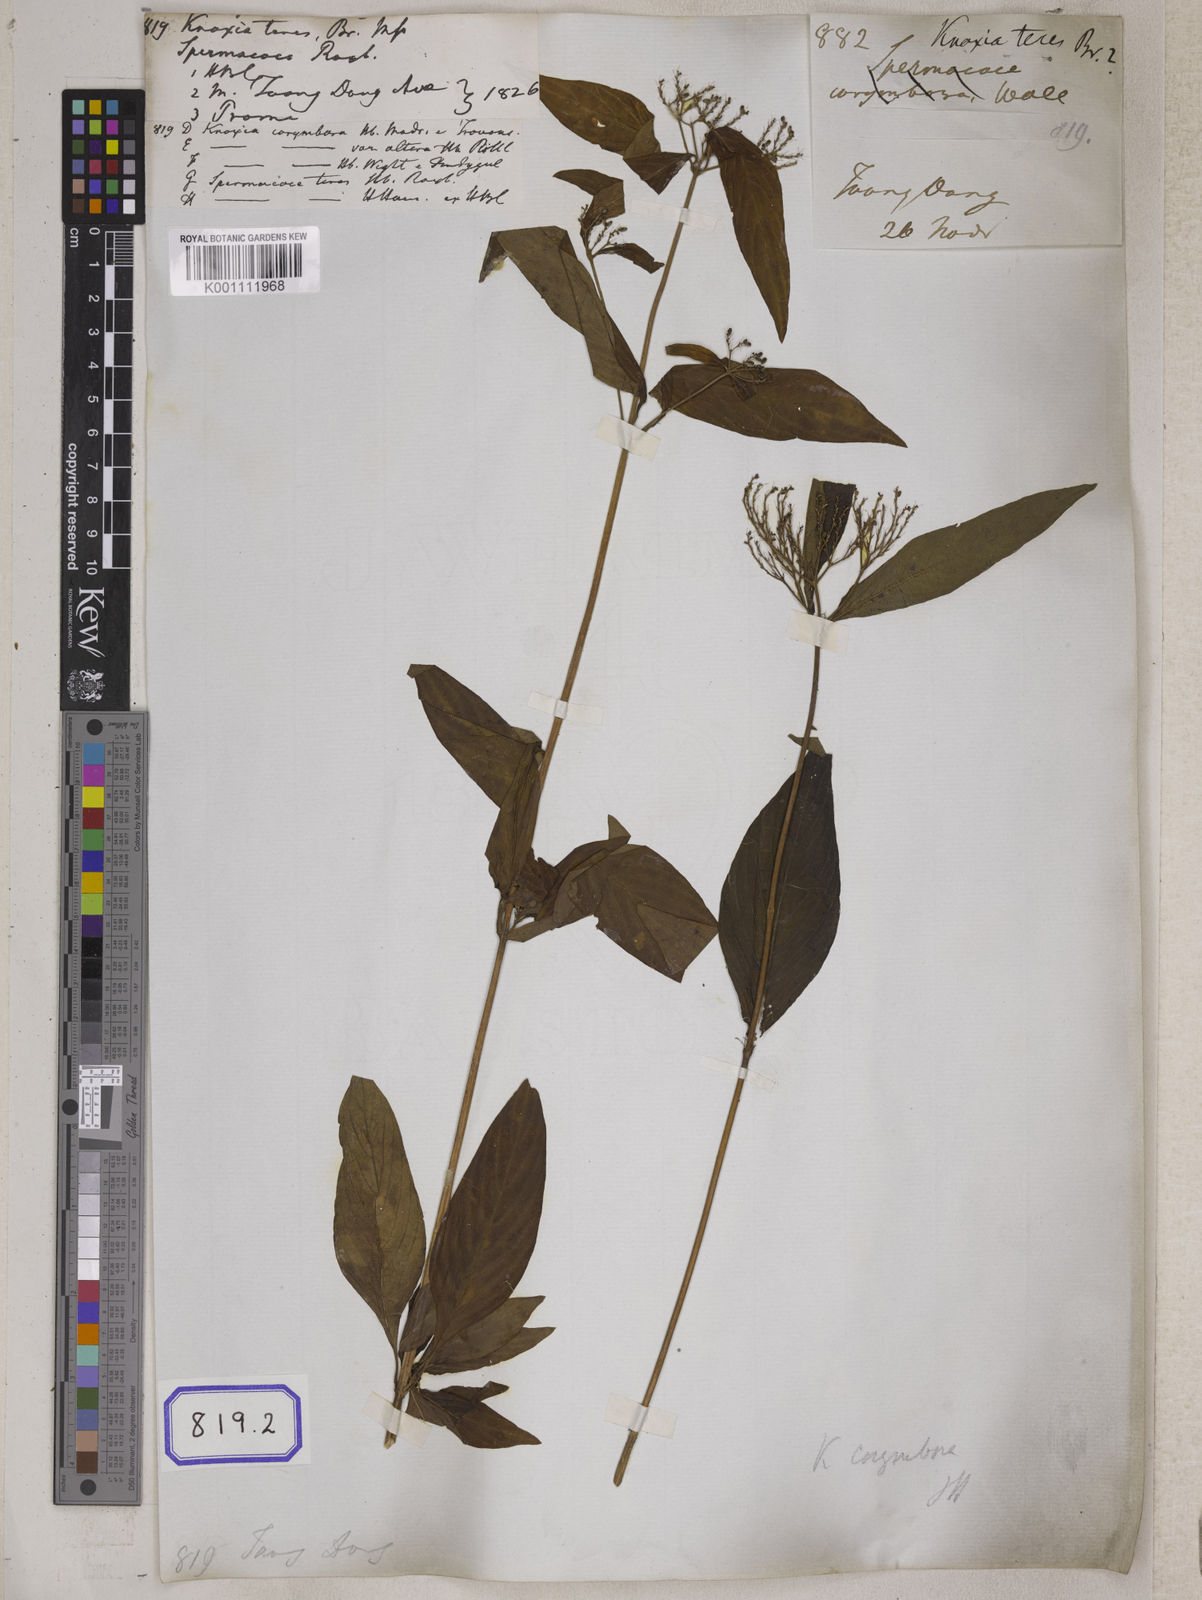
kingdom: Plantae
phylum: Tracheophyta
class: Magnoliopsida
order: Gentianales
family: Rubiaceae
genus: Knoxia
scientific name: Knoxia sumatrensis
